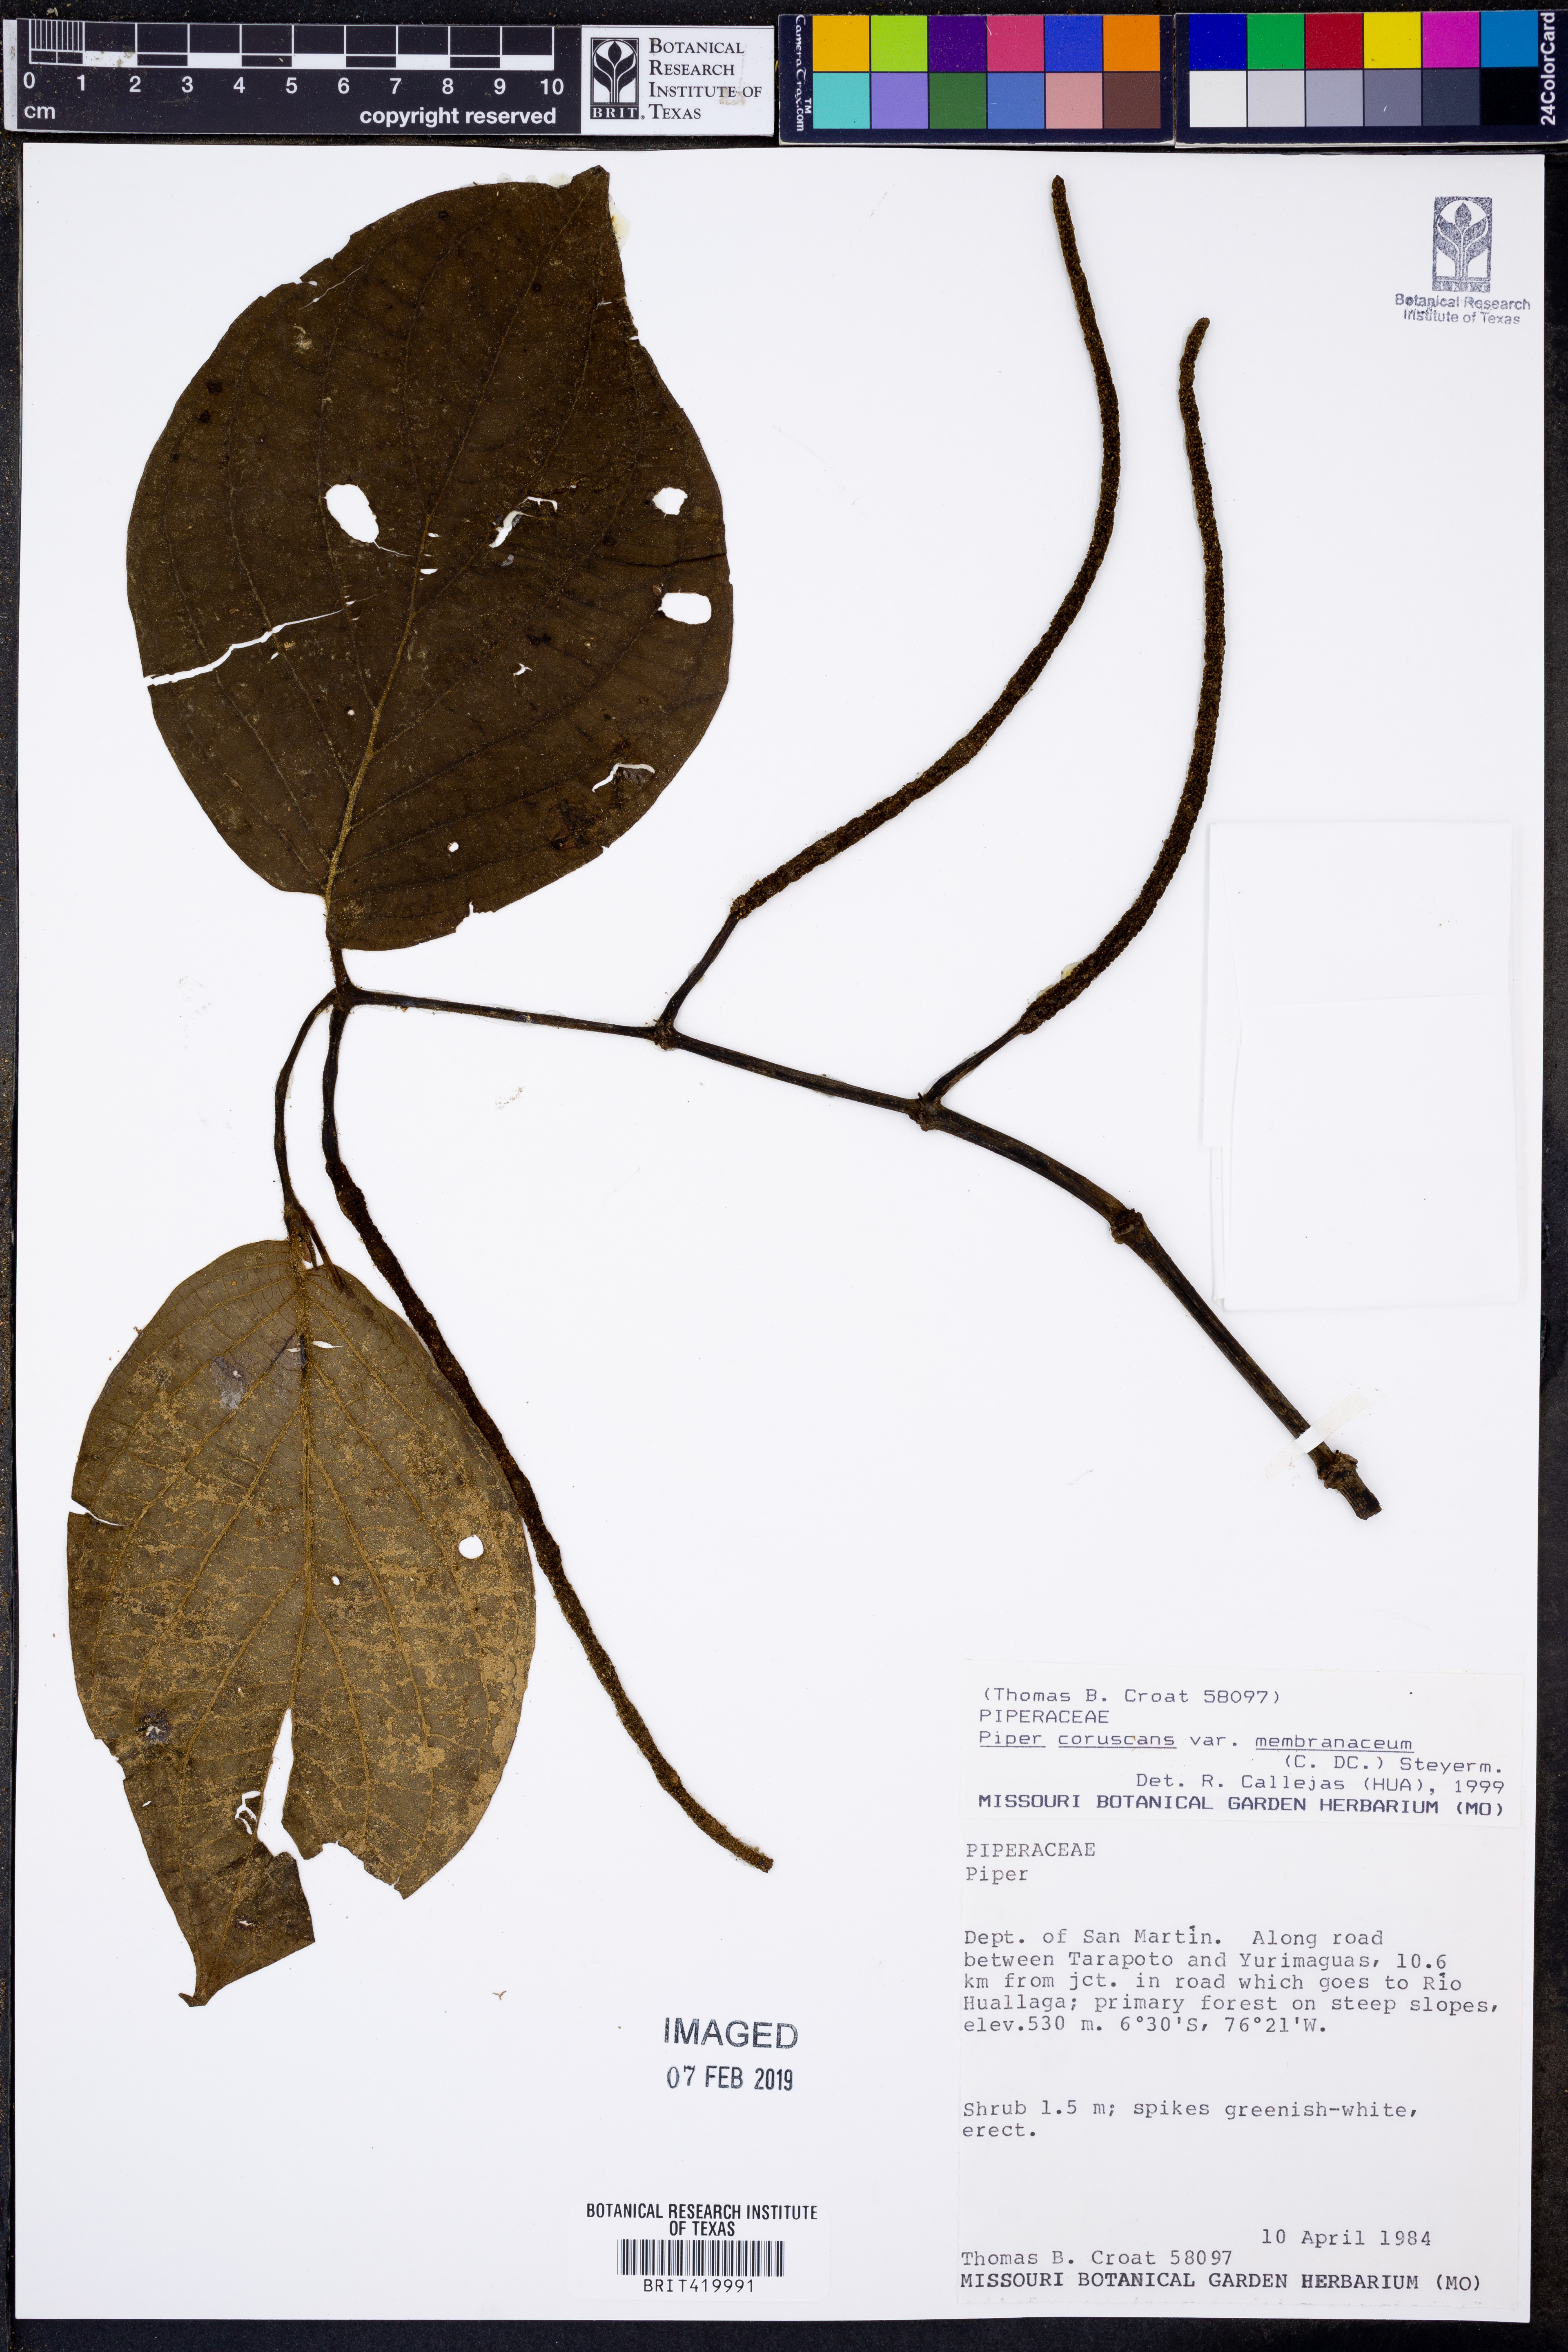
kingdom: Plantae
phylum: Tracheophyta
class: Magnoliopsida
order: Piperales
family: Piperaceae
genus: Piper
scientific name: Piper coruscans
